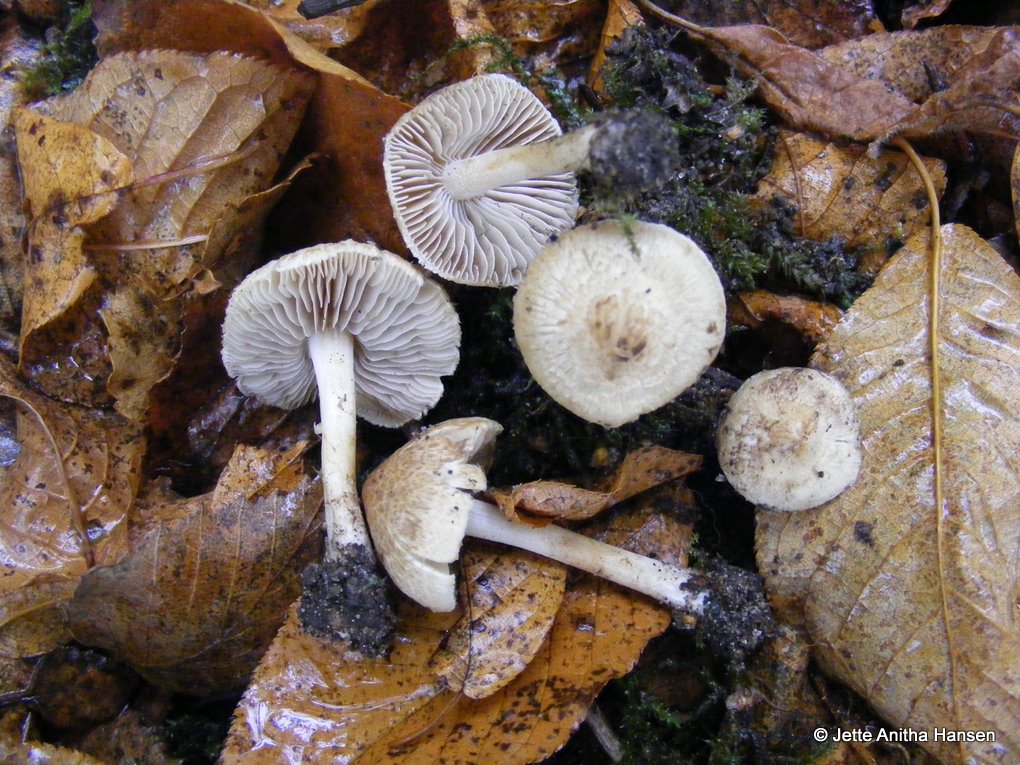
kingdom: Fungi
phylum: Basidiomycota
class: Agaricomycetes
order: Agaricales
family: Inocybaceae
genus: Inocybe
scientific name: Inocybe sindonia
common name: bleg trævlhat
